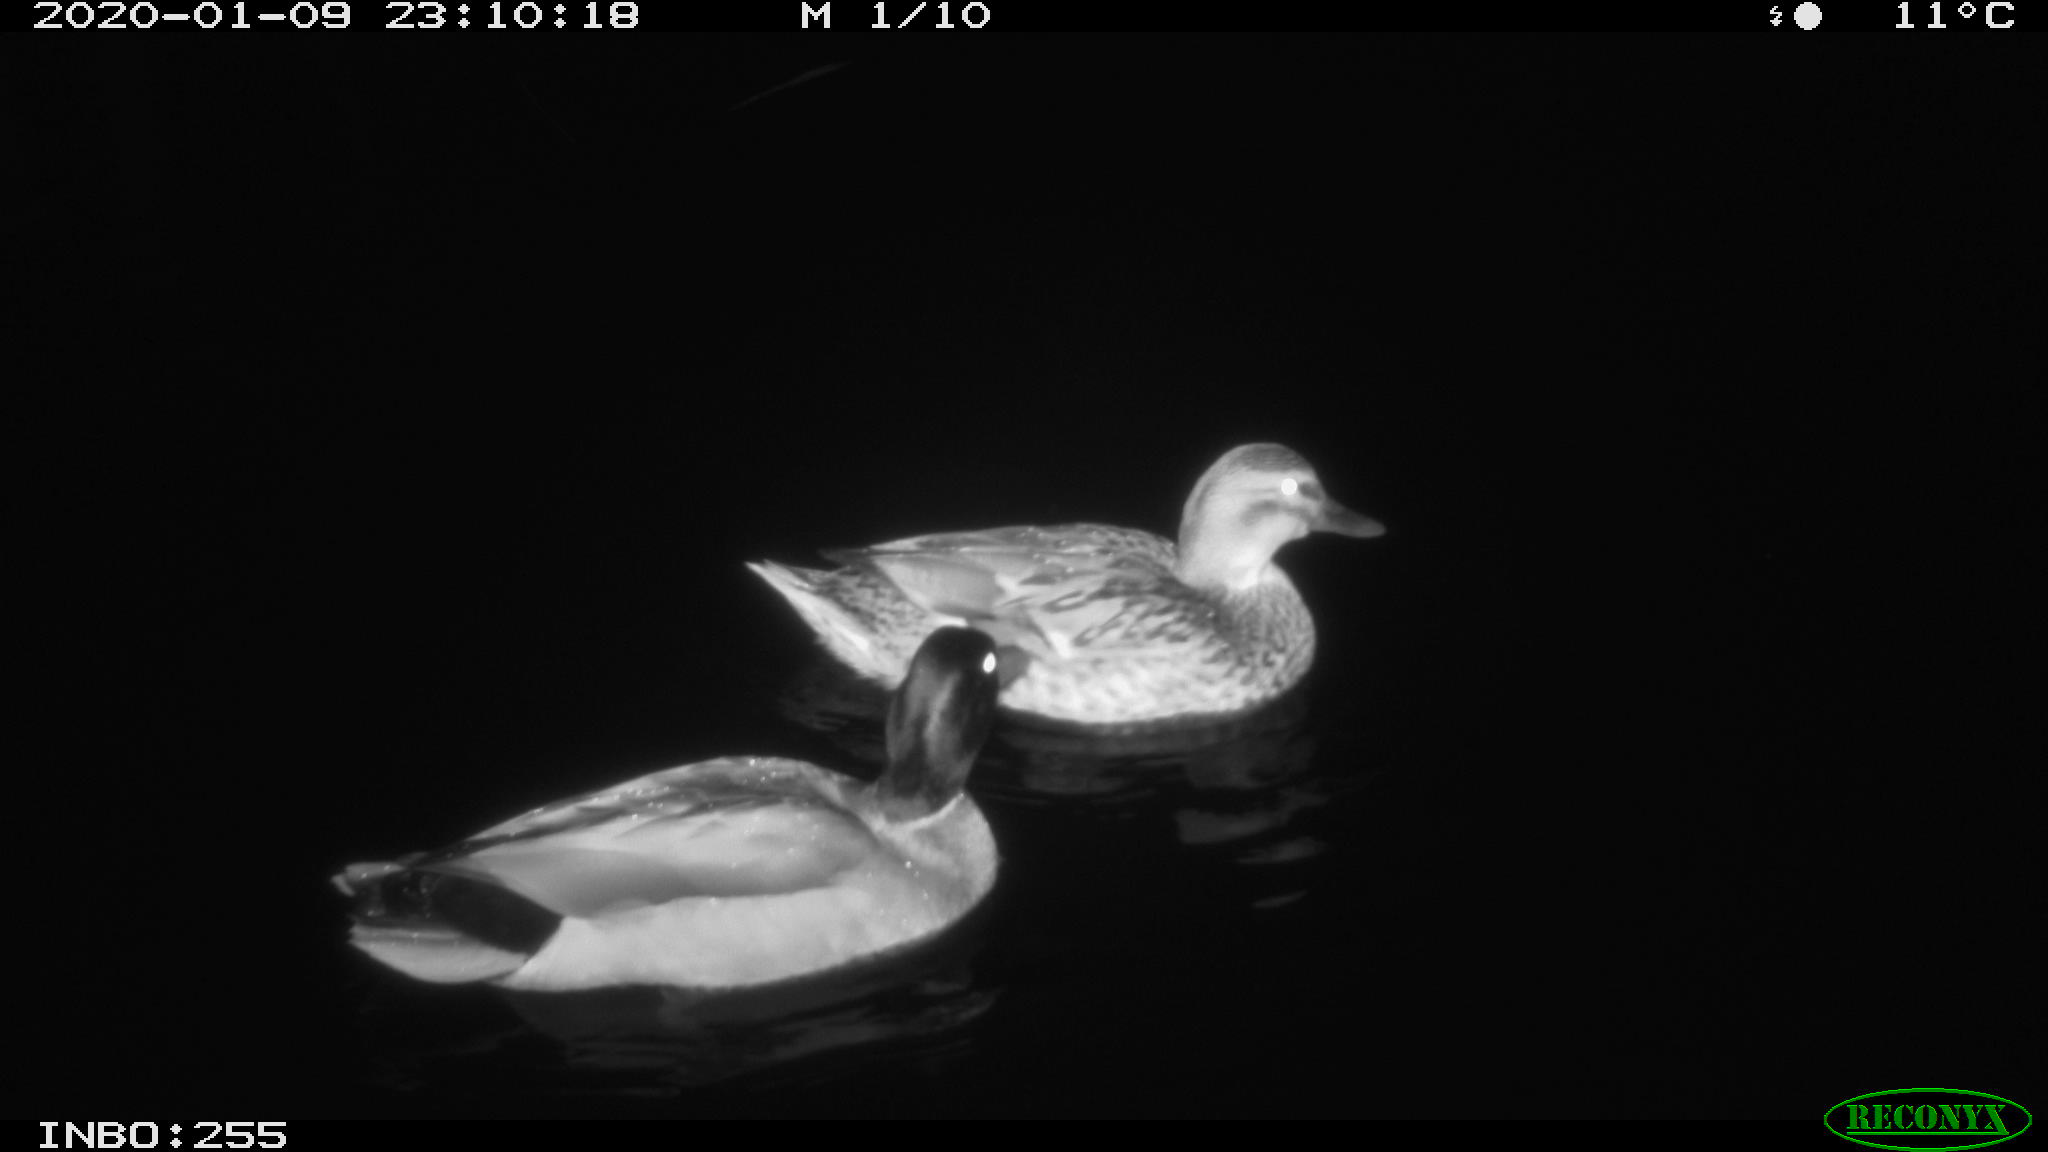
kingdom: Animalia
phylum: Chordata
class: Aves
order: Anseriformes
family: Anatidae
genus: Anas
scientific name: Anas platyrhynchos
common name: Mallard
